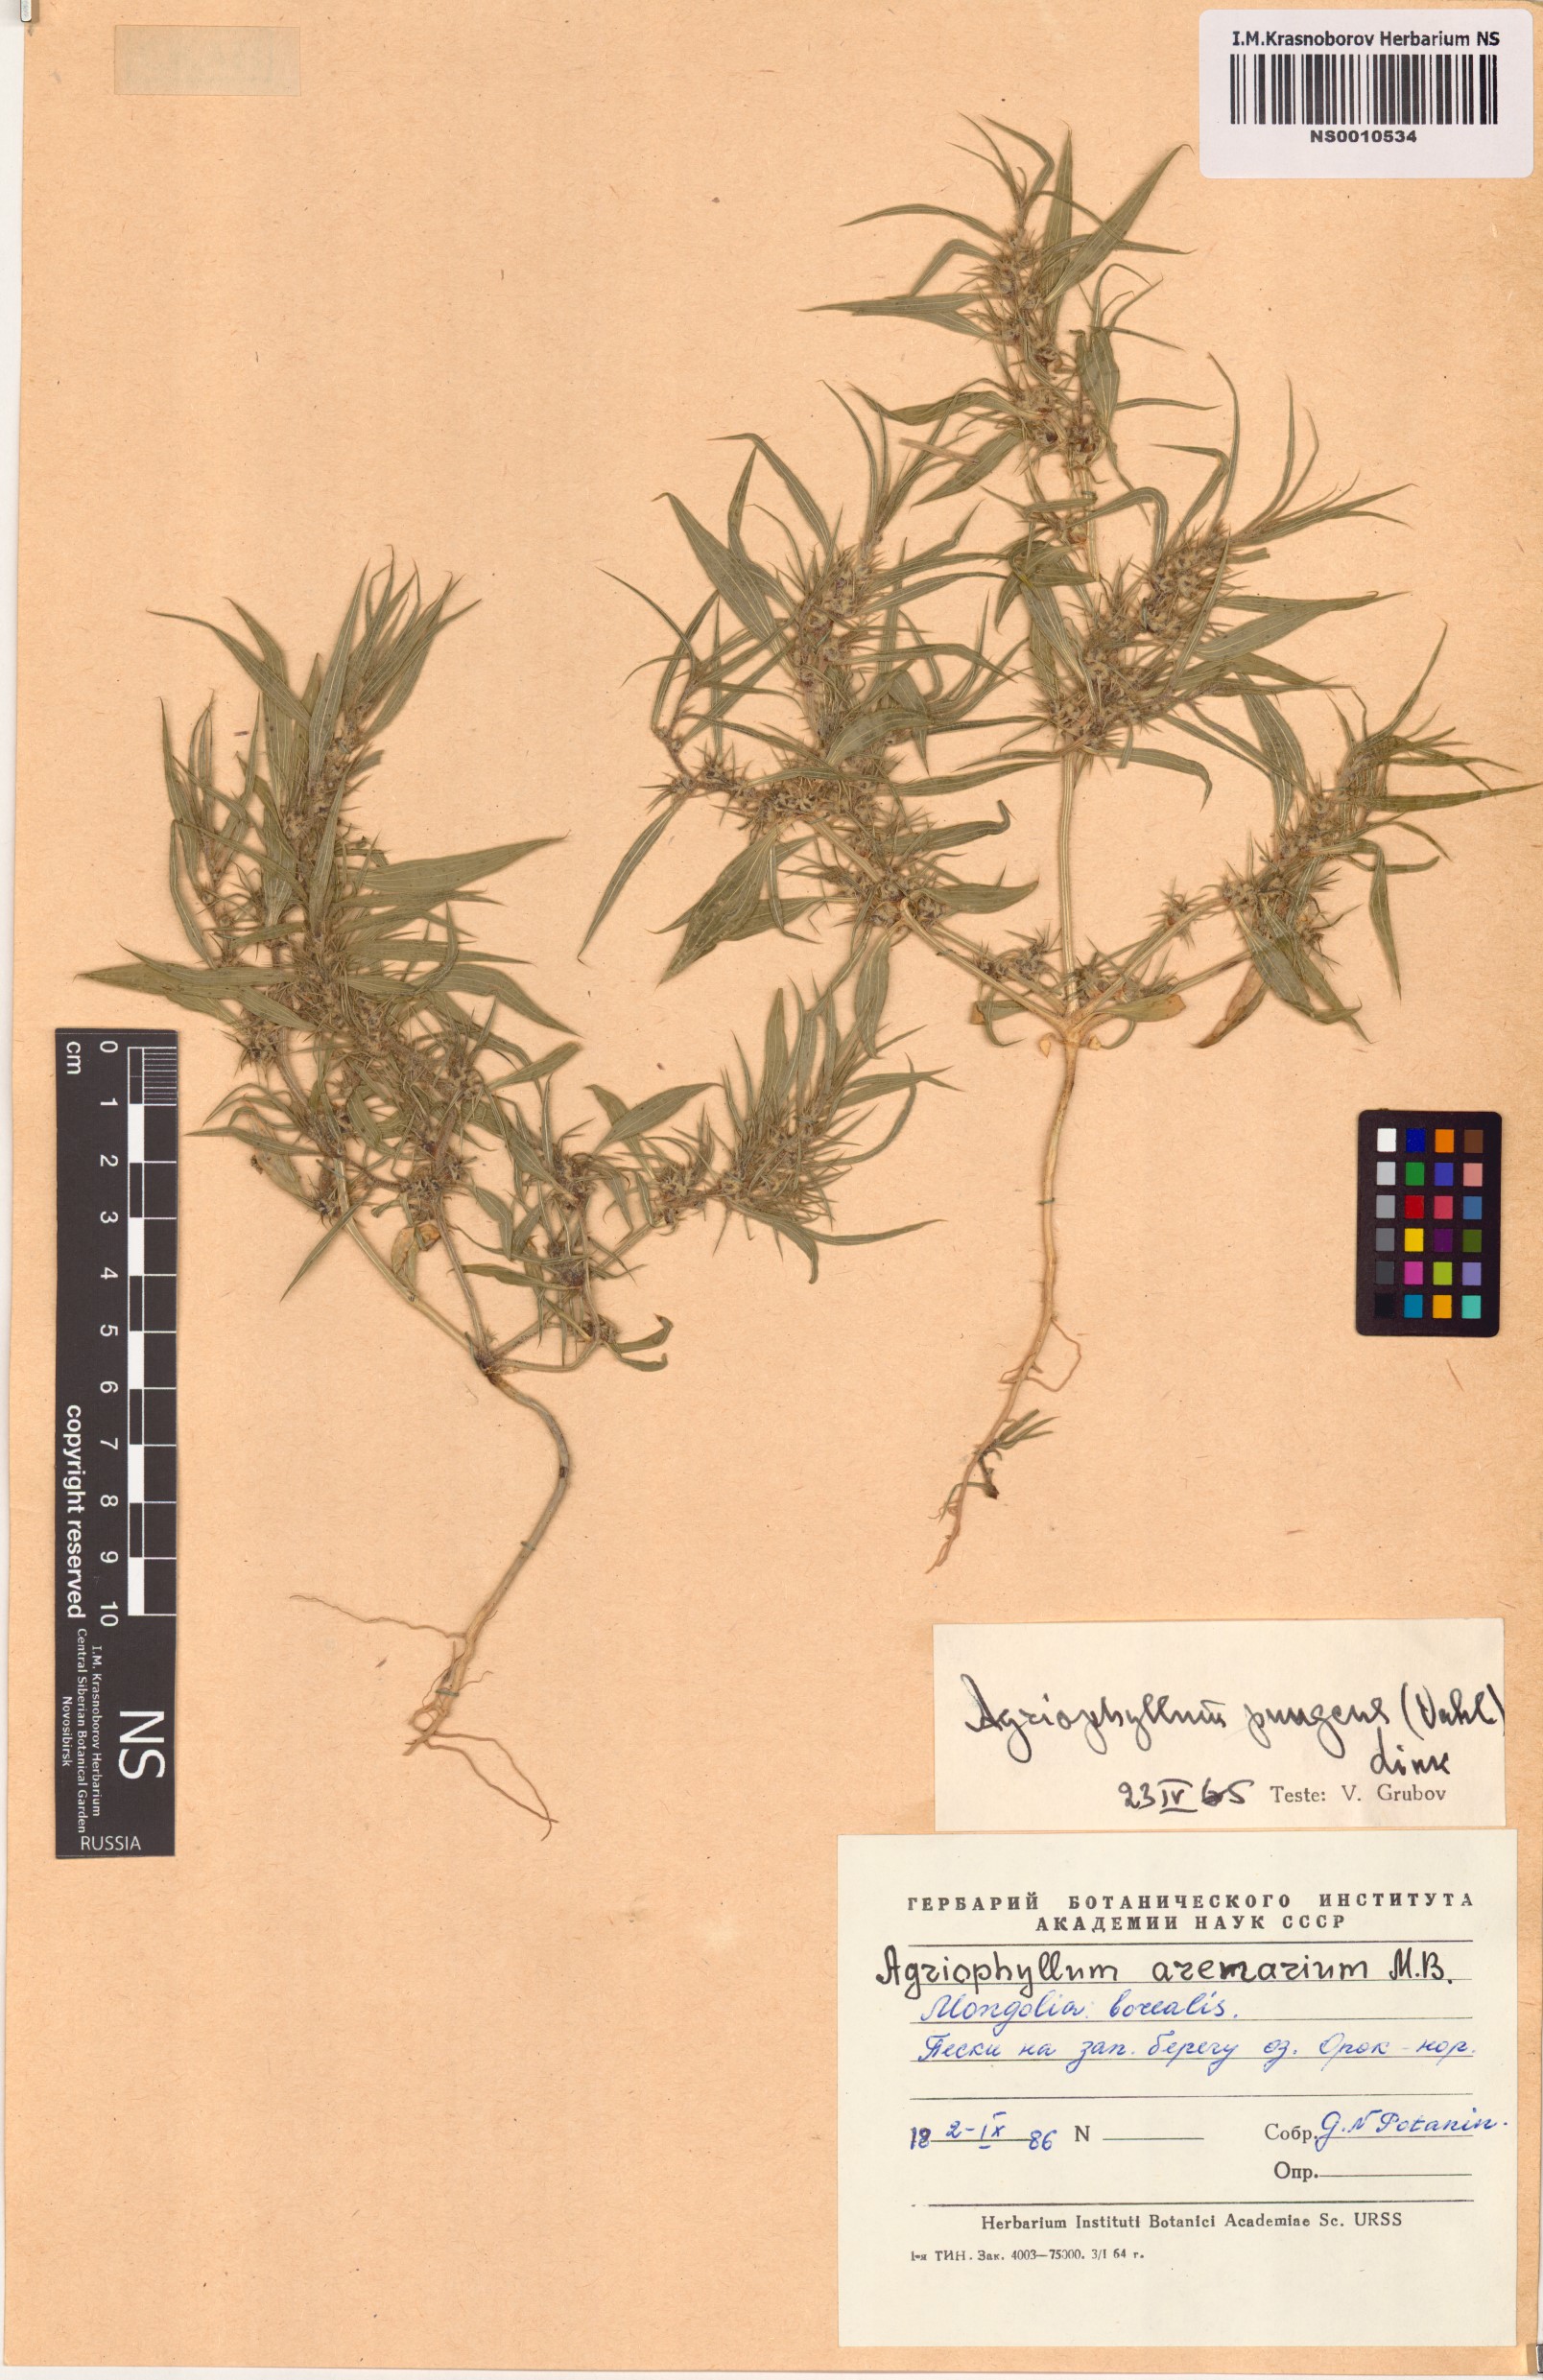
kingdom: Plantae
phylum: Tracheophyta
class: Magnoliopsida
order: Caryophyllales
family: Amaranthaceae
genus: Agriophyllum
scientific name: Agriophyllum pungens
